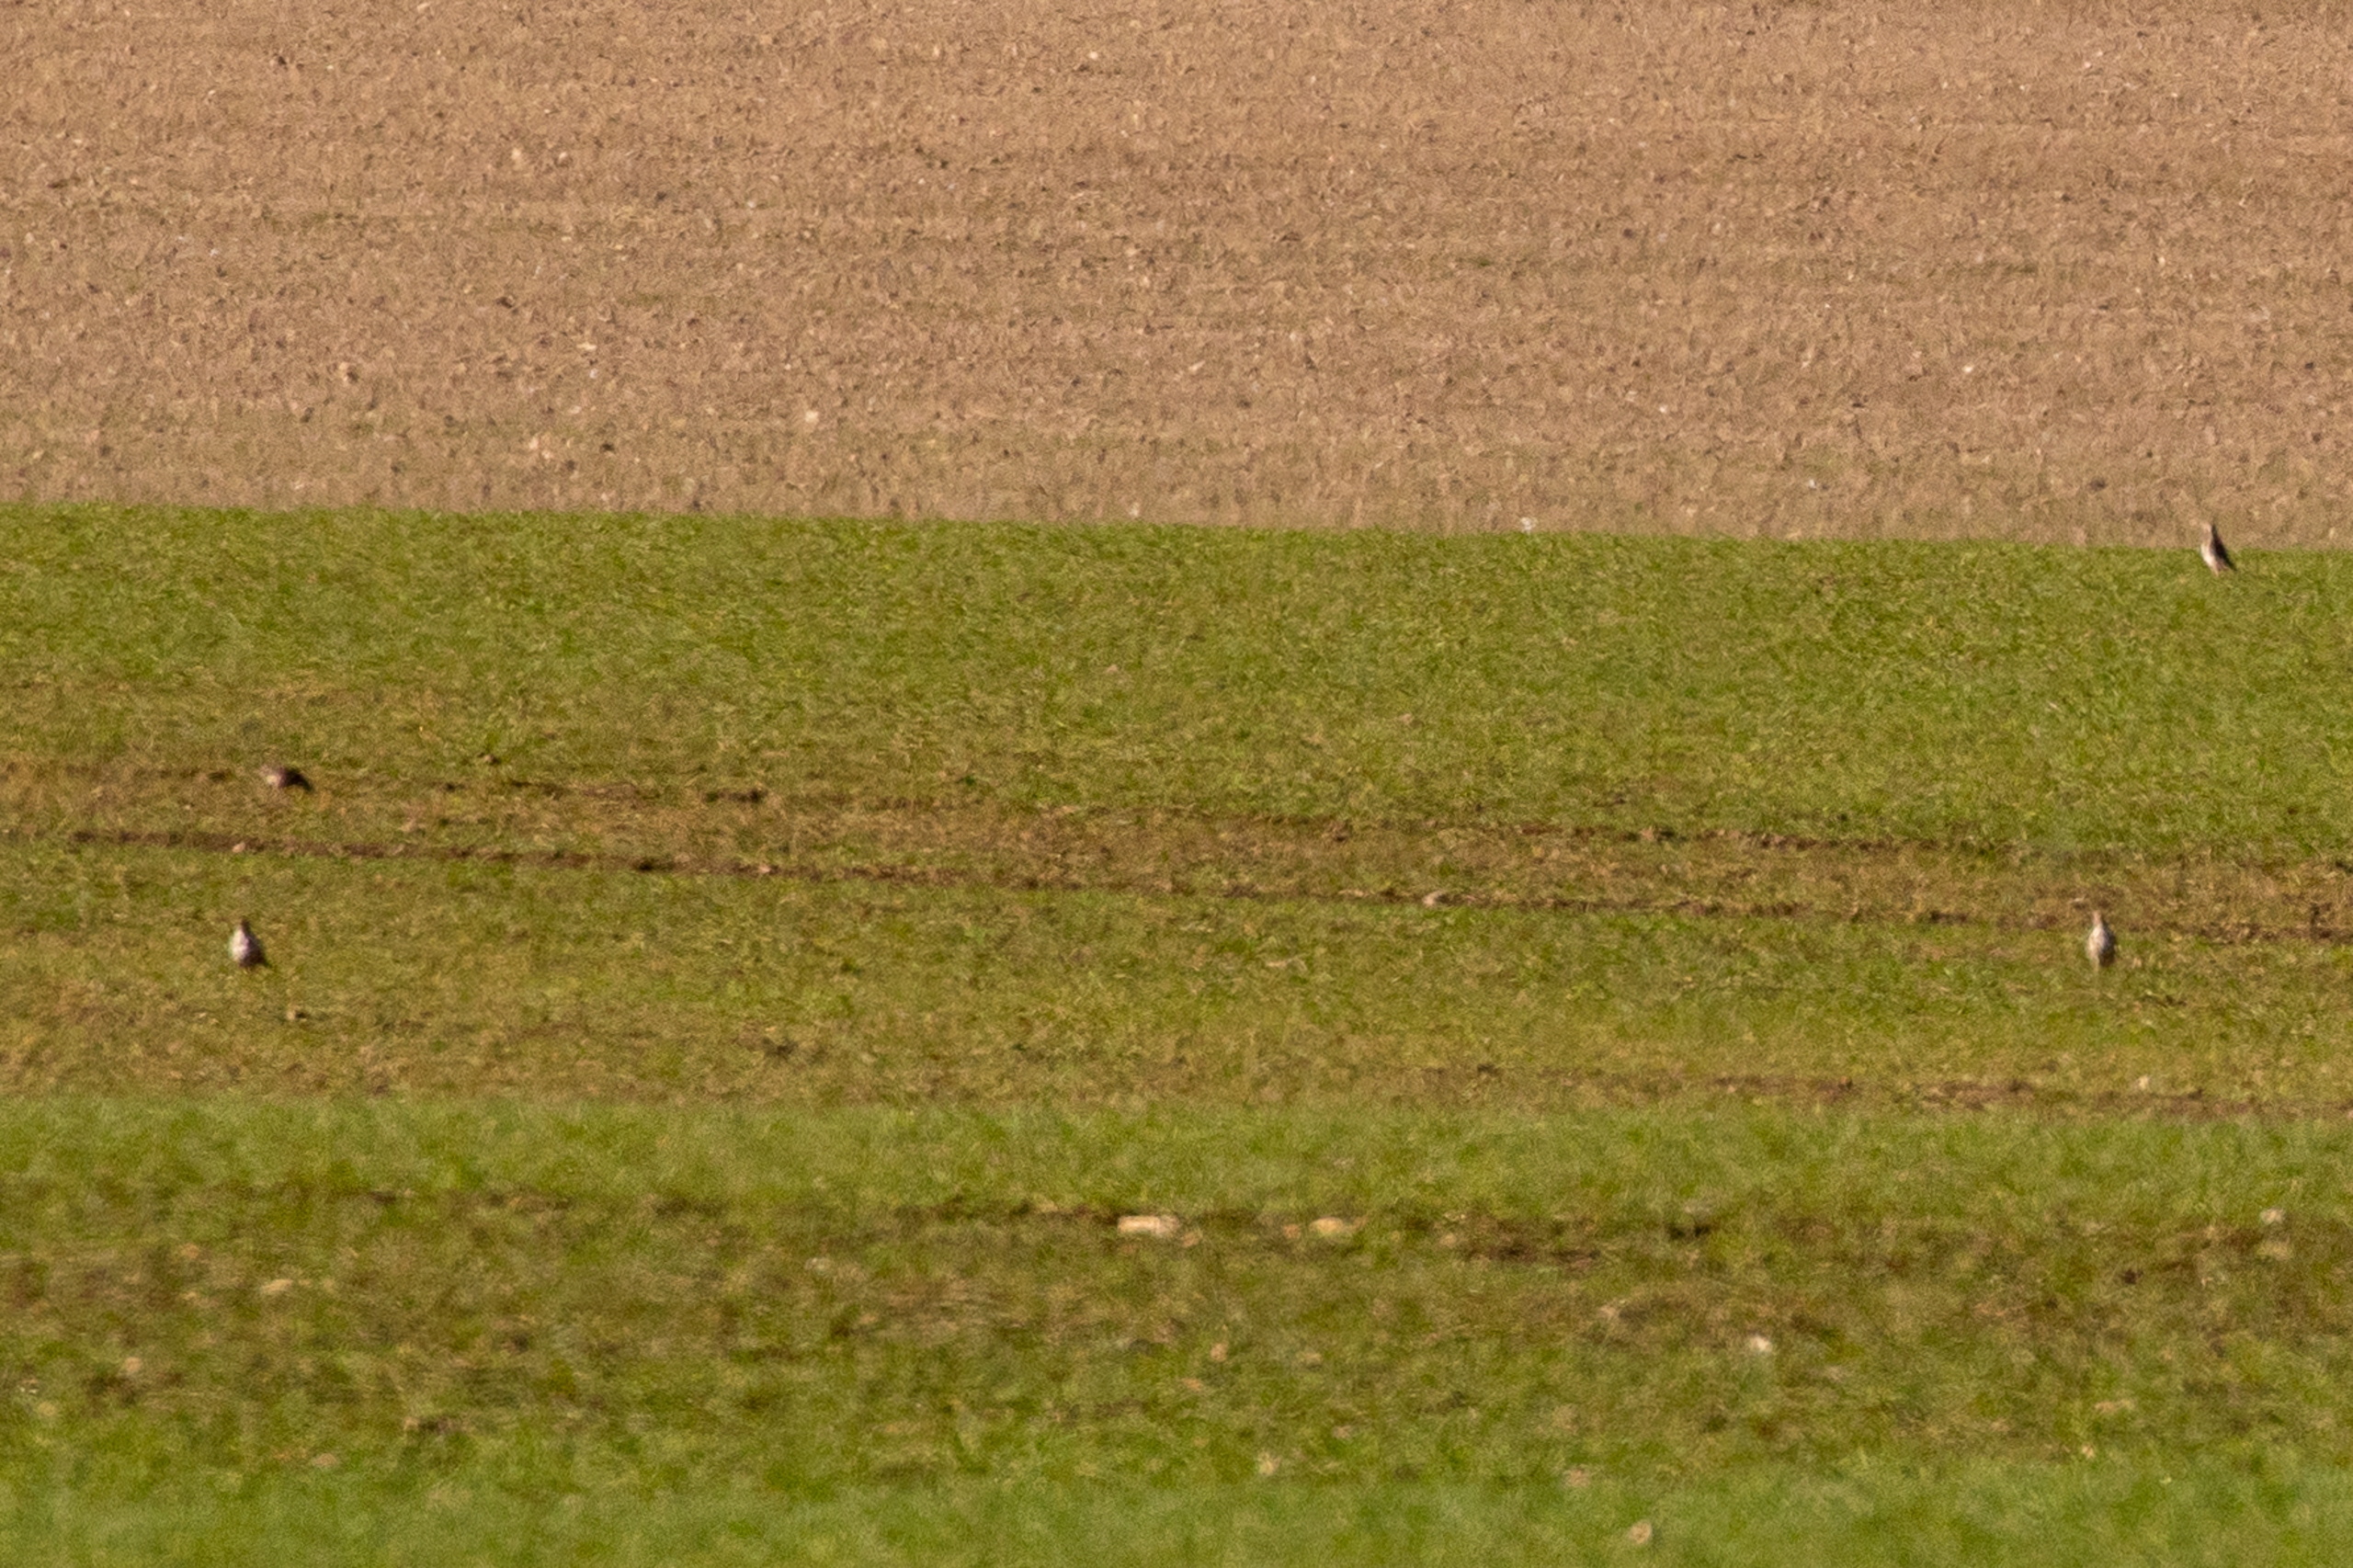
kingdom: Animalia
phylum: Chordata
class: Aves
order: Passeriformes
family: Turdidae
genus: Turdus
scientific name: Turdus pilaris
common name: Sjagger
